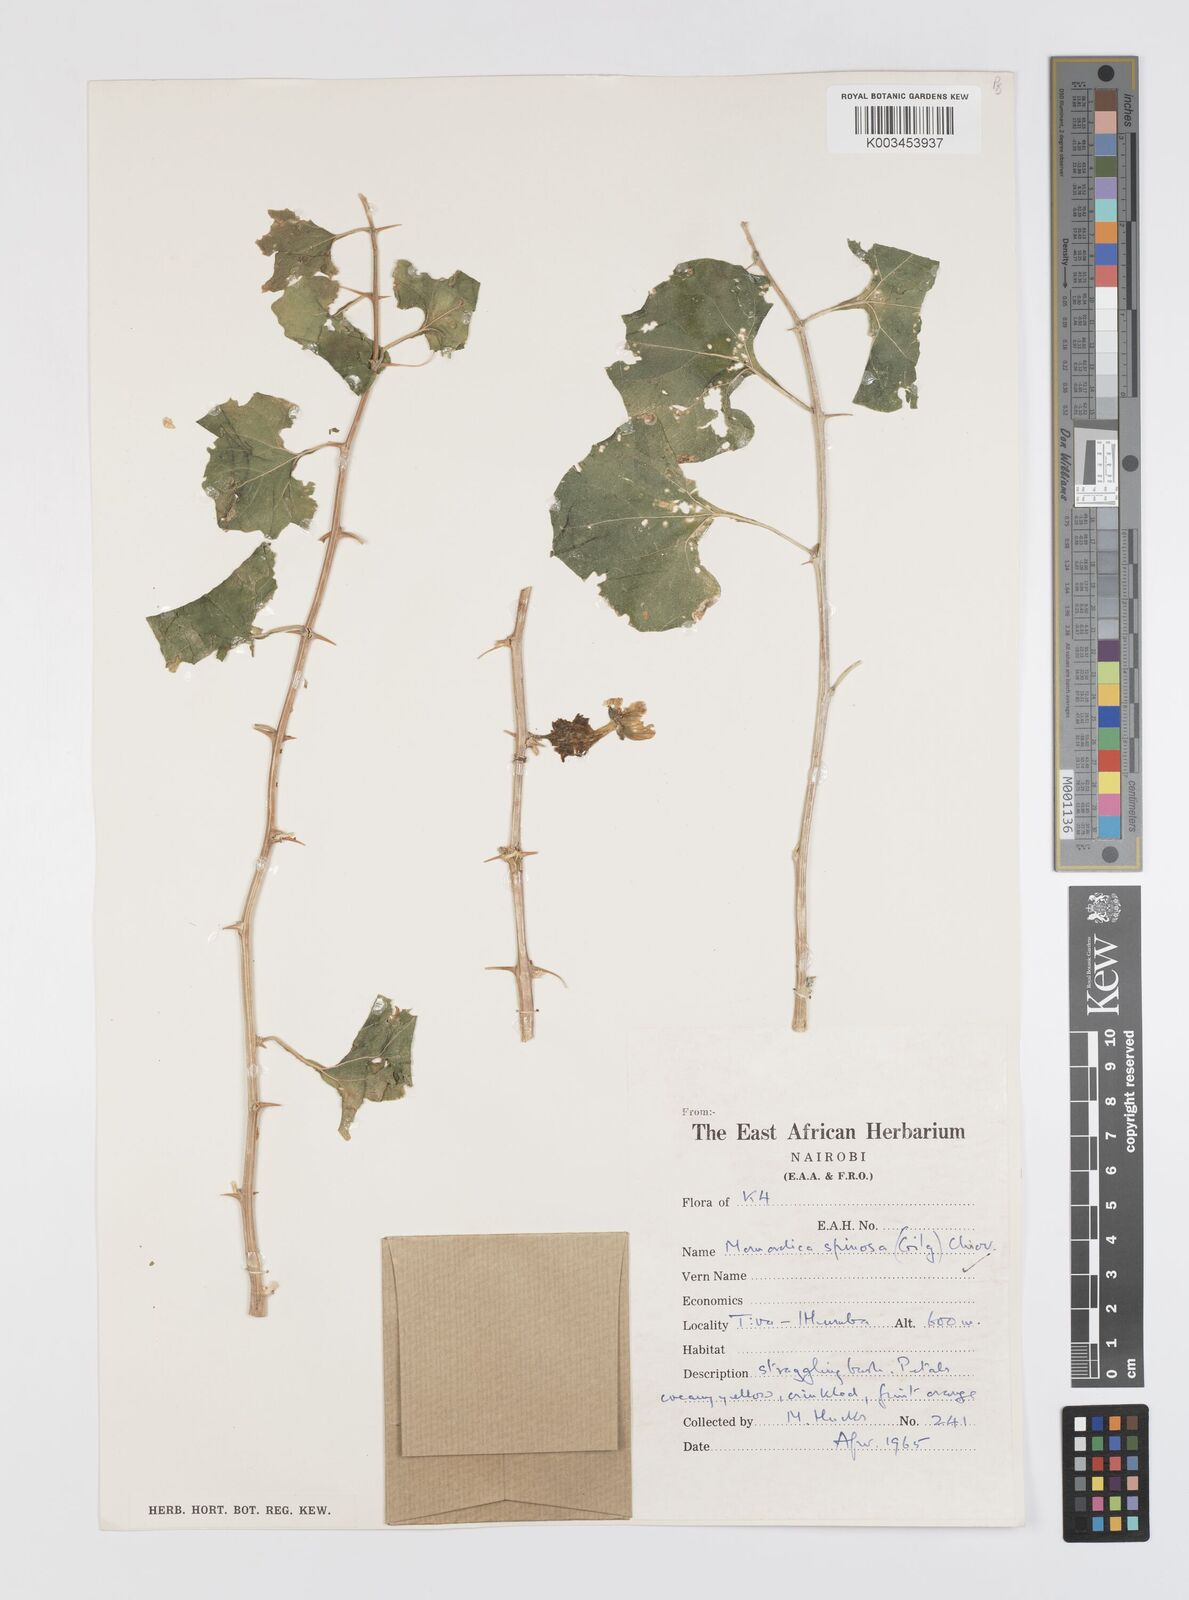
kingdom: Plantae
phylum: Tracheophyta
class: Magnoliopsida
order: Cucurbitales
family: Cucurbitaceae
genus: Momordica
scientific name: Momordica spinosa
